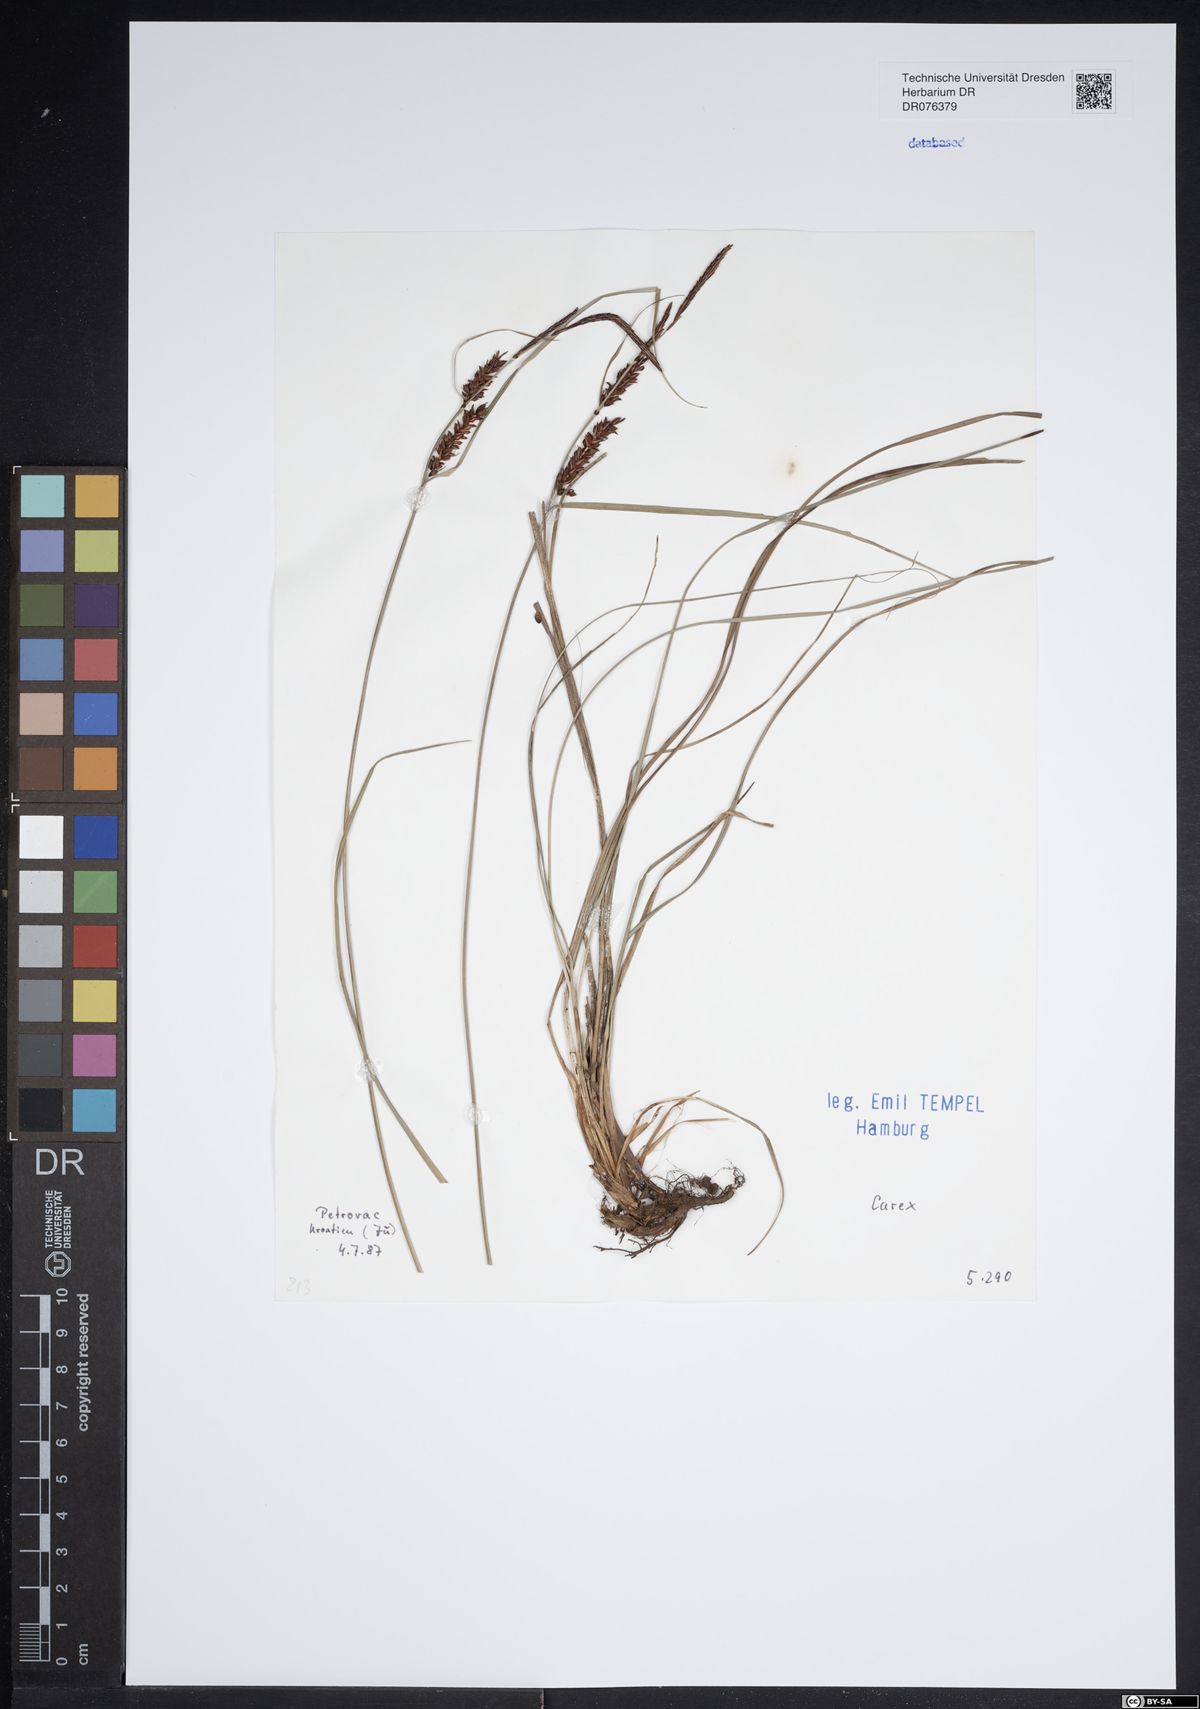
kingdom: Plantae
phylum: Tracheophyta
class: Liliopsida
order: Poales
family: Cyperaceae
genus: Carex
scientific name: Carex
